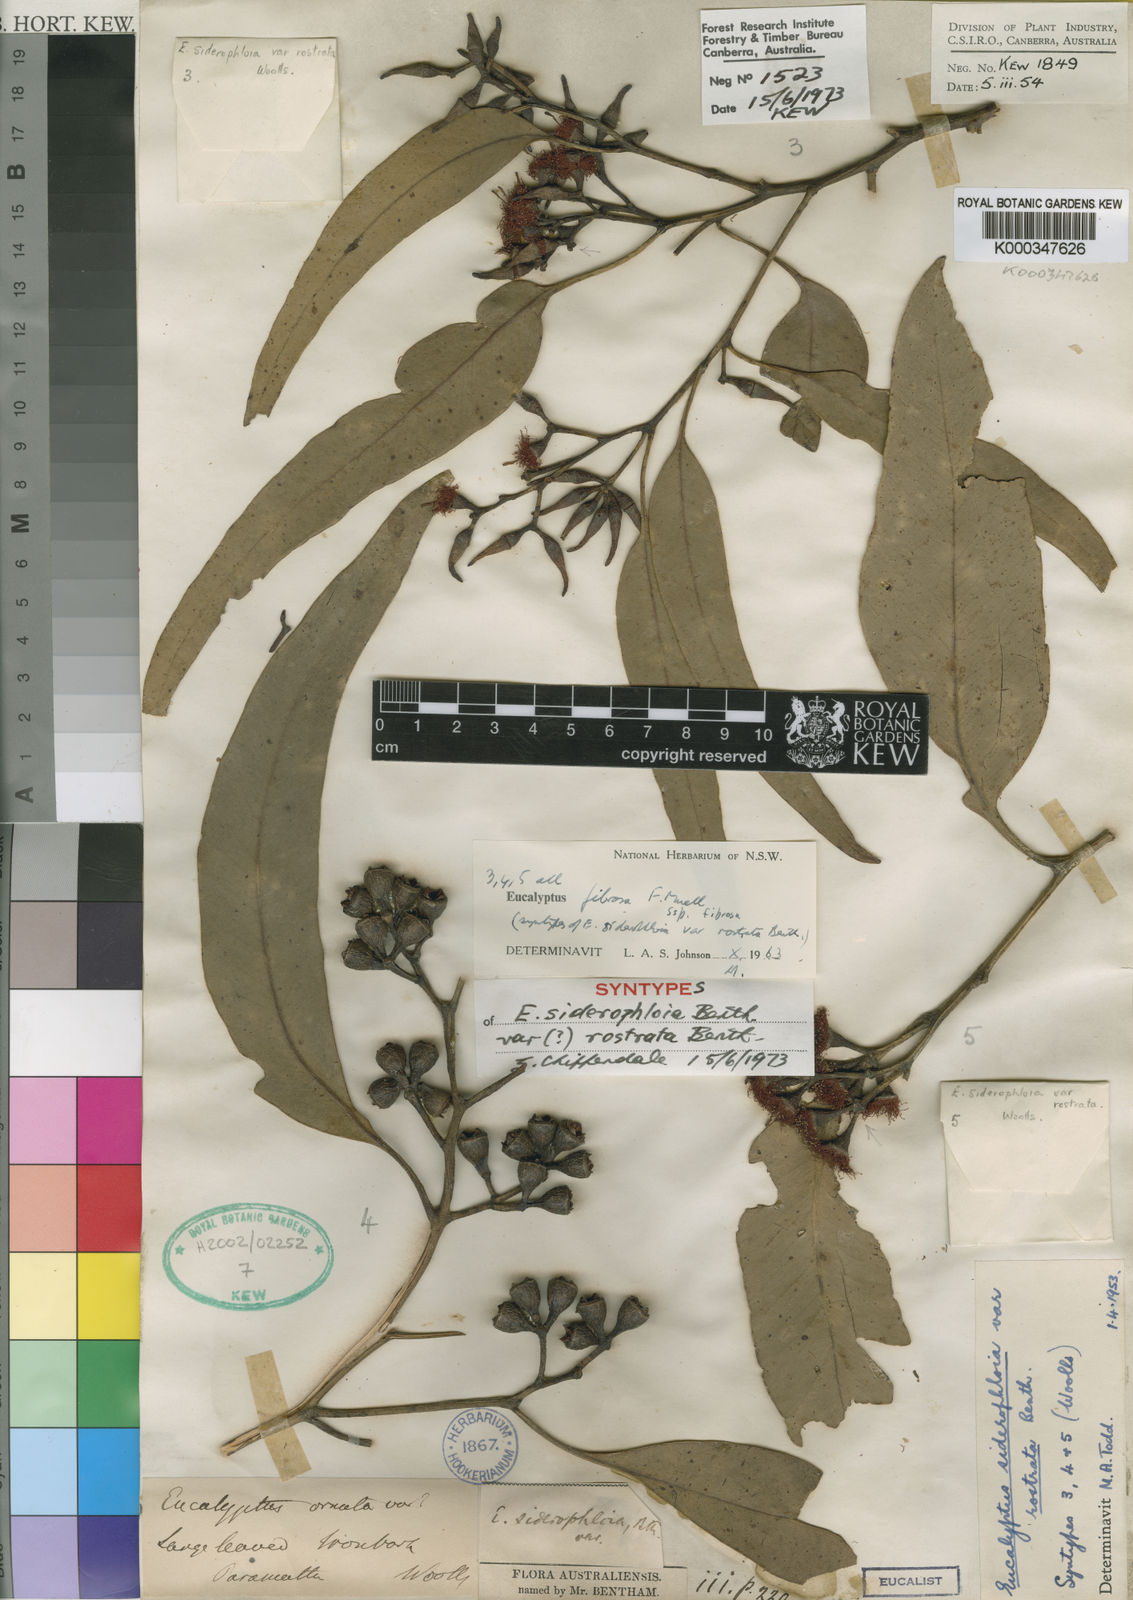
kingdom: Plantae
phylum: Tracheophyta
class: Magnoliopsida
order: Myrtales
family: Myrtaceae
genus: Eucalyptus
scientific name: Eucalyptus fibrosa
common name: Red ironbark
